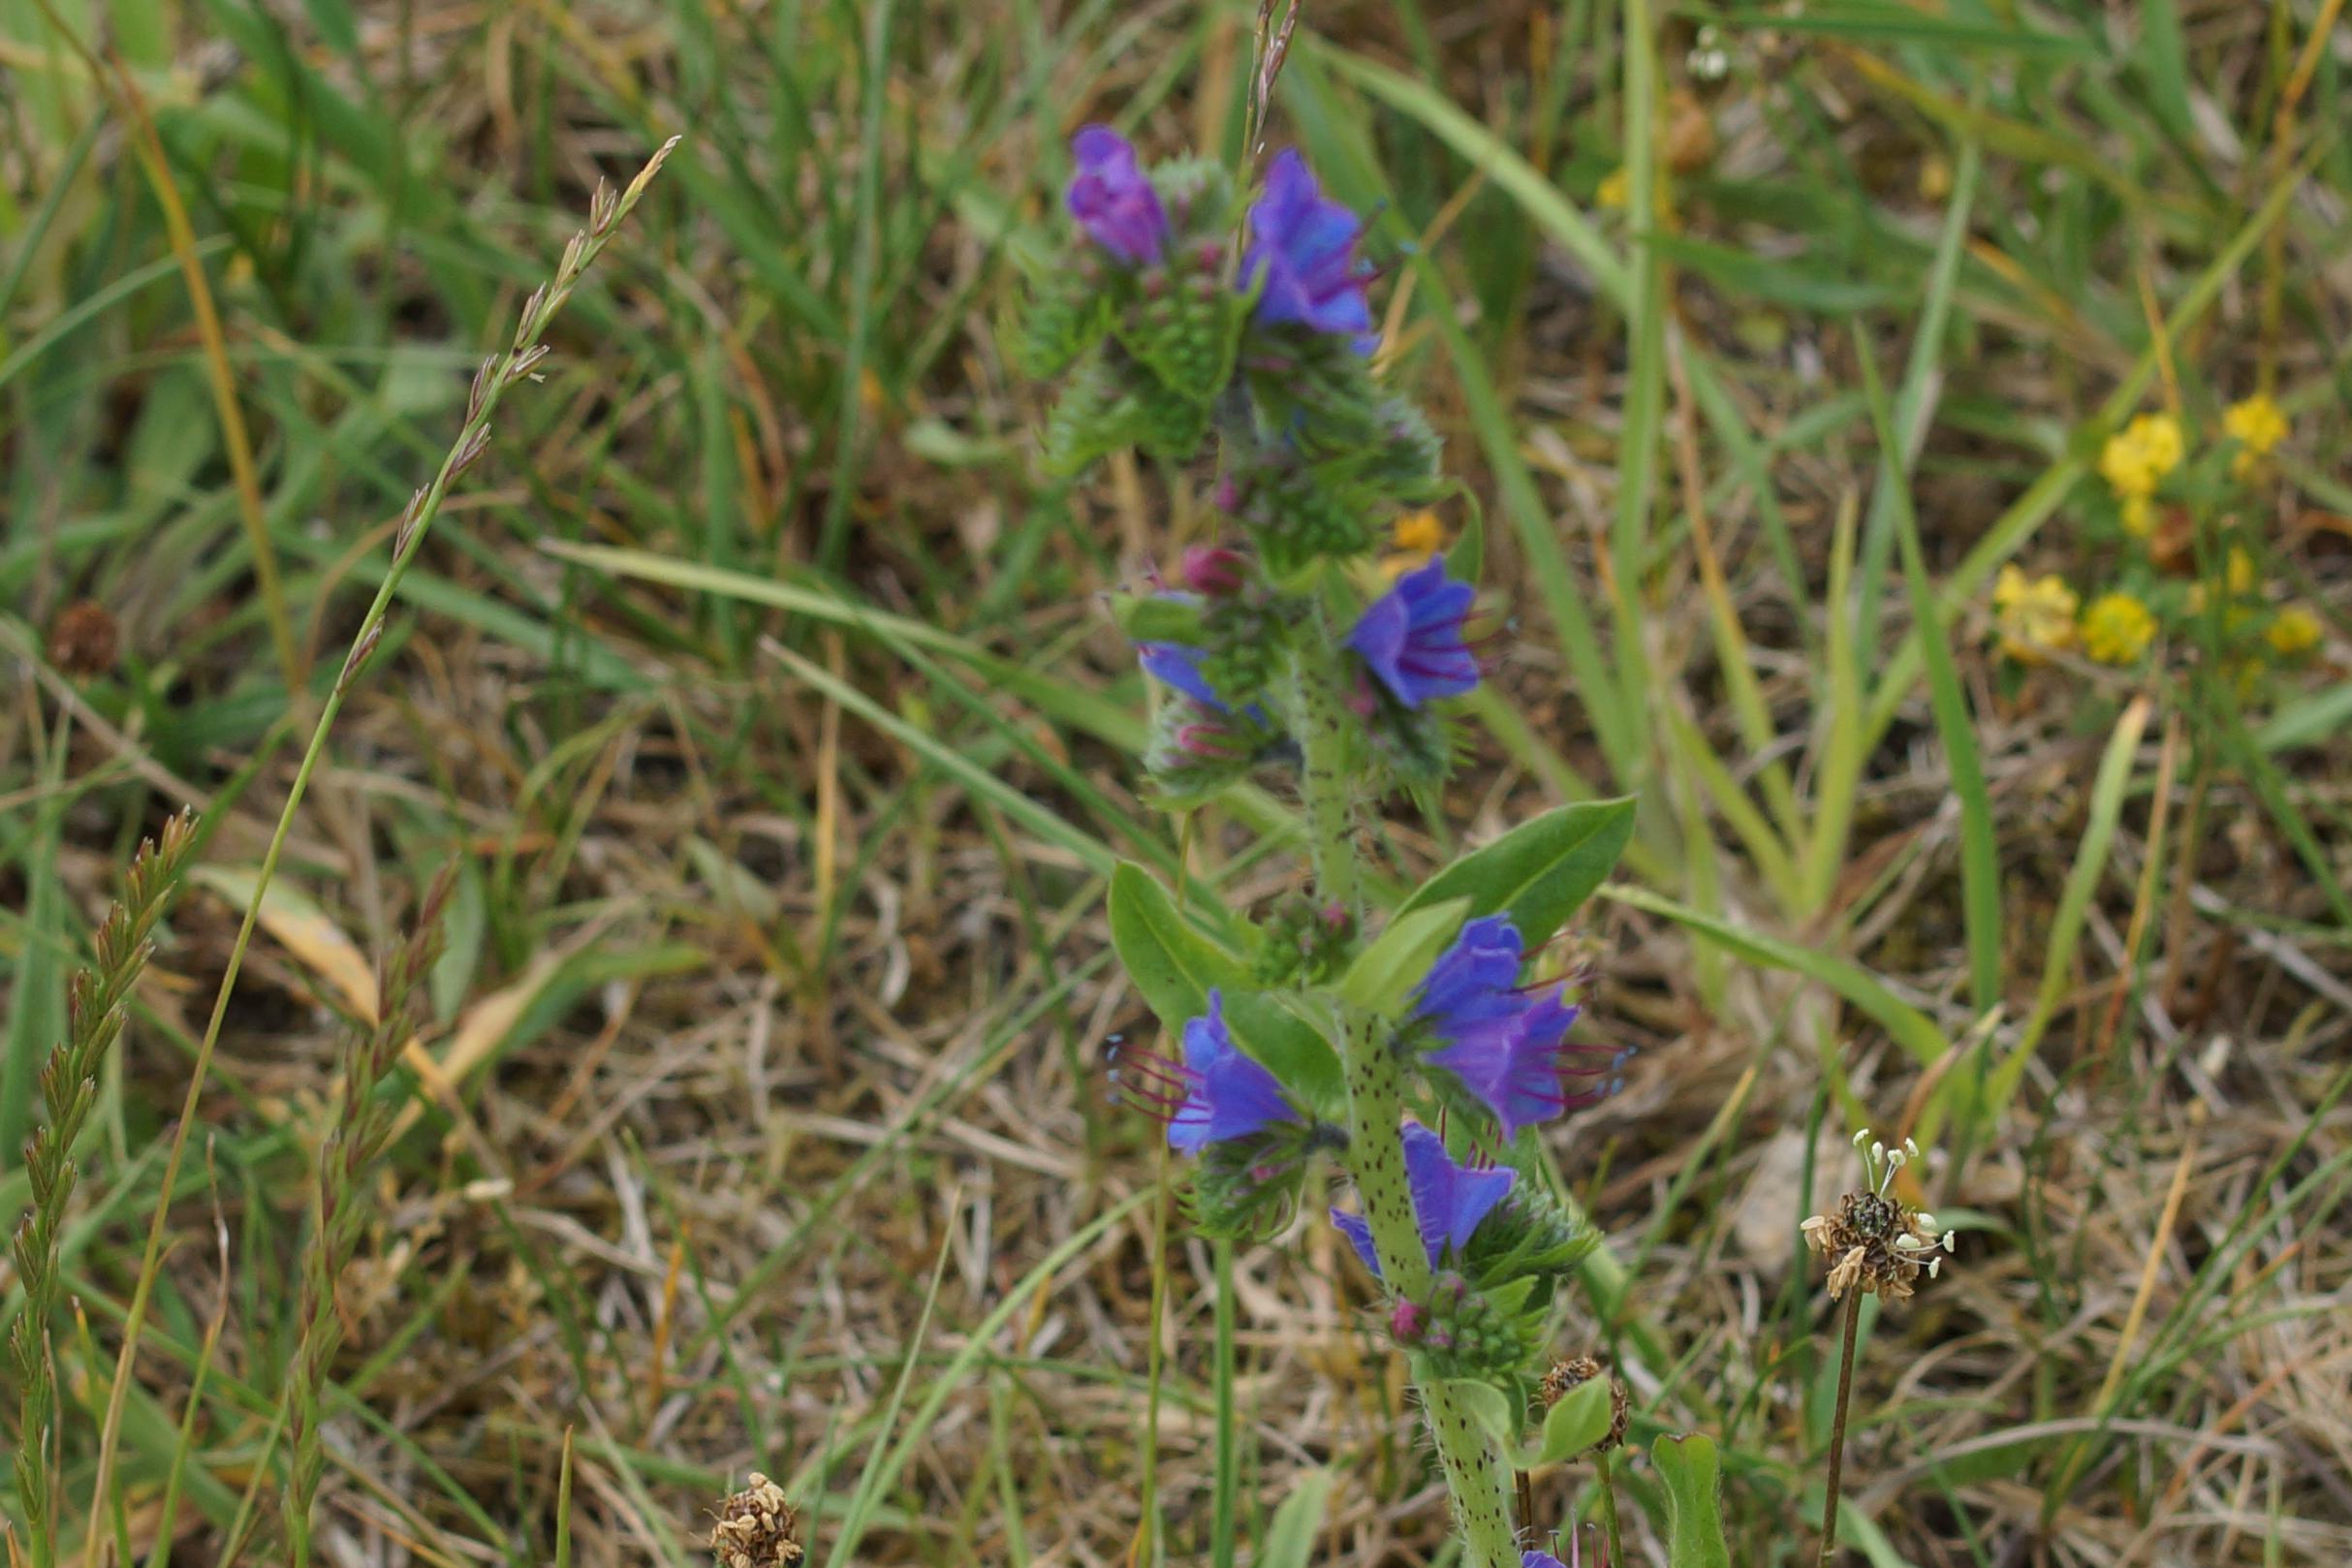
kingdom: Plantae
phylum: Tracheophyta
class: Magnoliopsida
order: Boraginales
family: Boraginaceae
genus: Echium
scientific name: Echium vulgare
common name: Slangehoved
